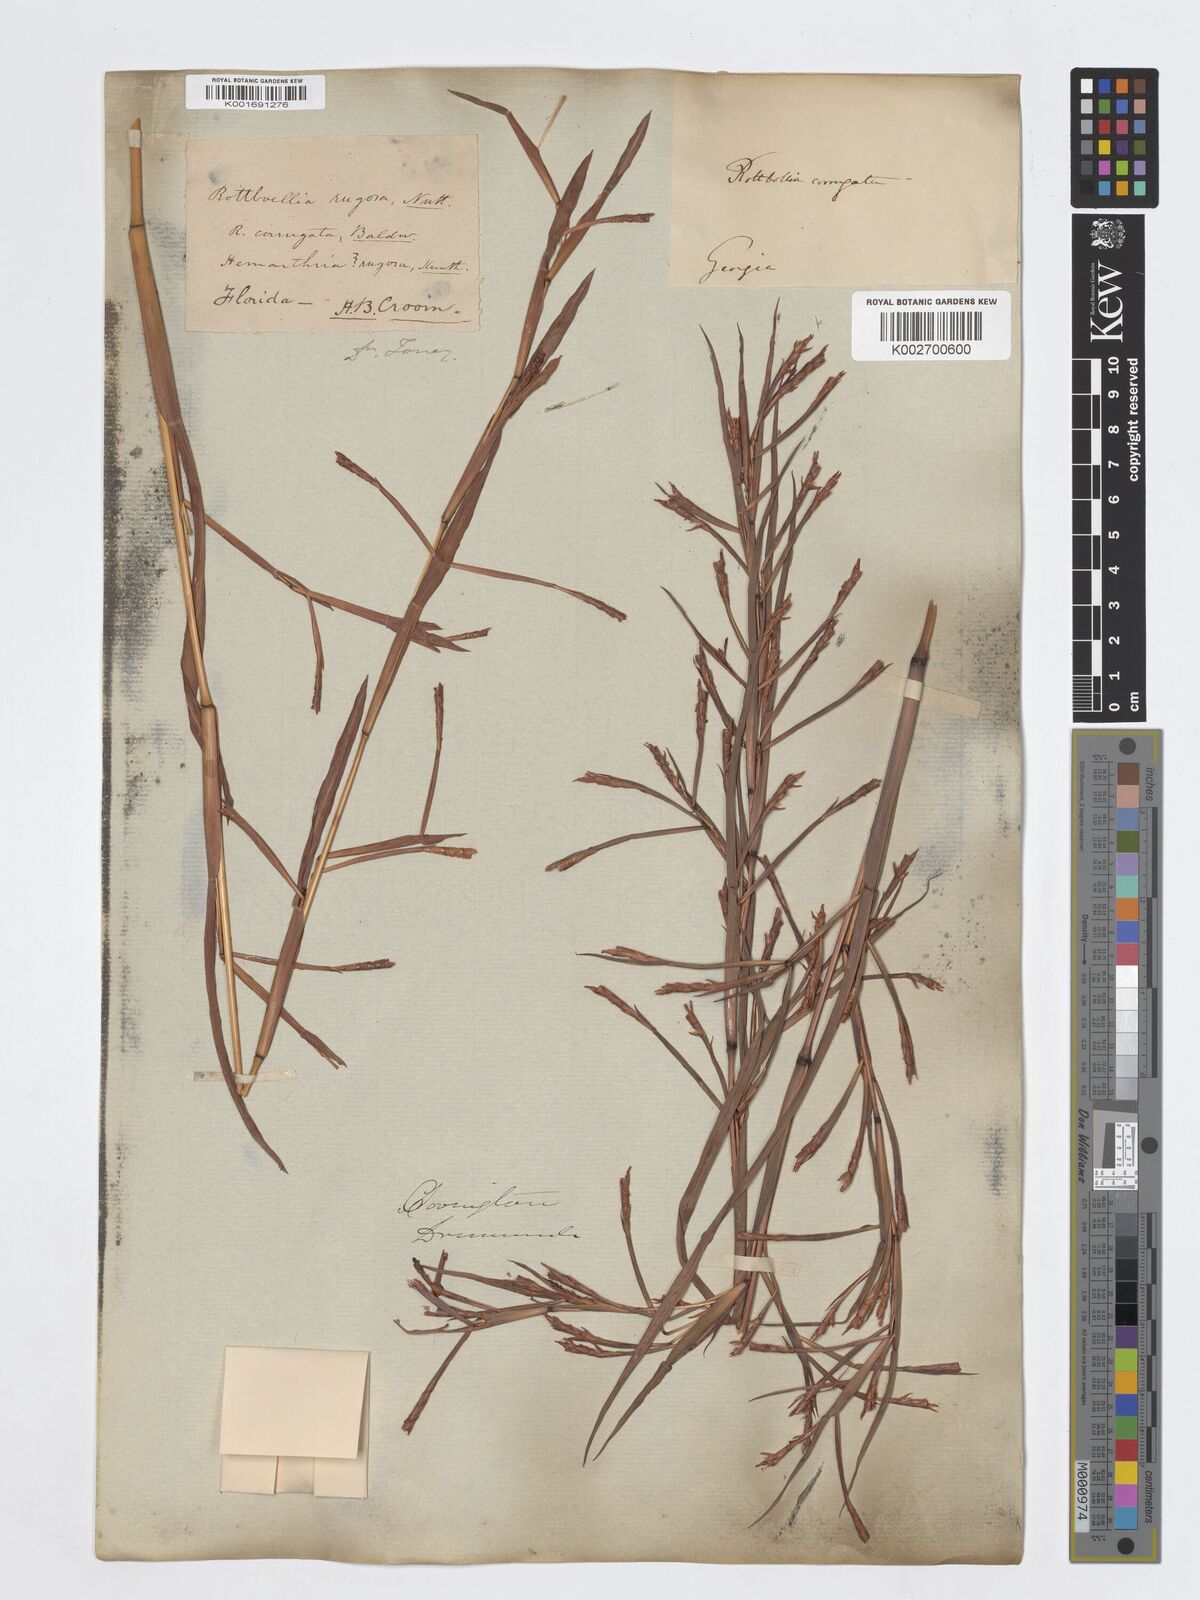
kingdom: Plantae
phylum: Tracheophyta
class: Liliopsida
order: Poales
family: Poaceae
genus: Rottboellia
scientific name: Rottboellia rugosa
